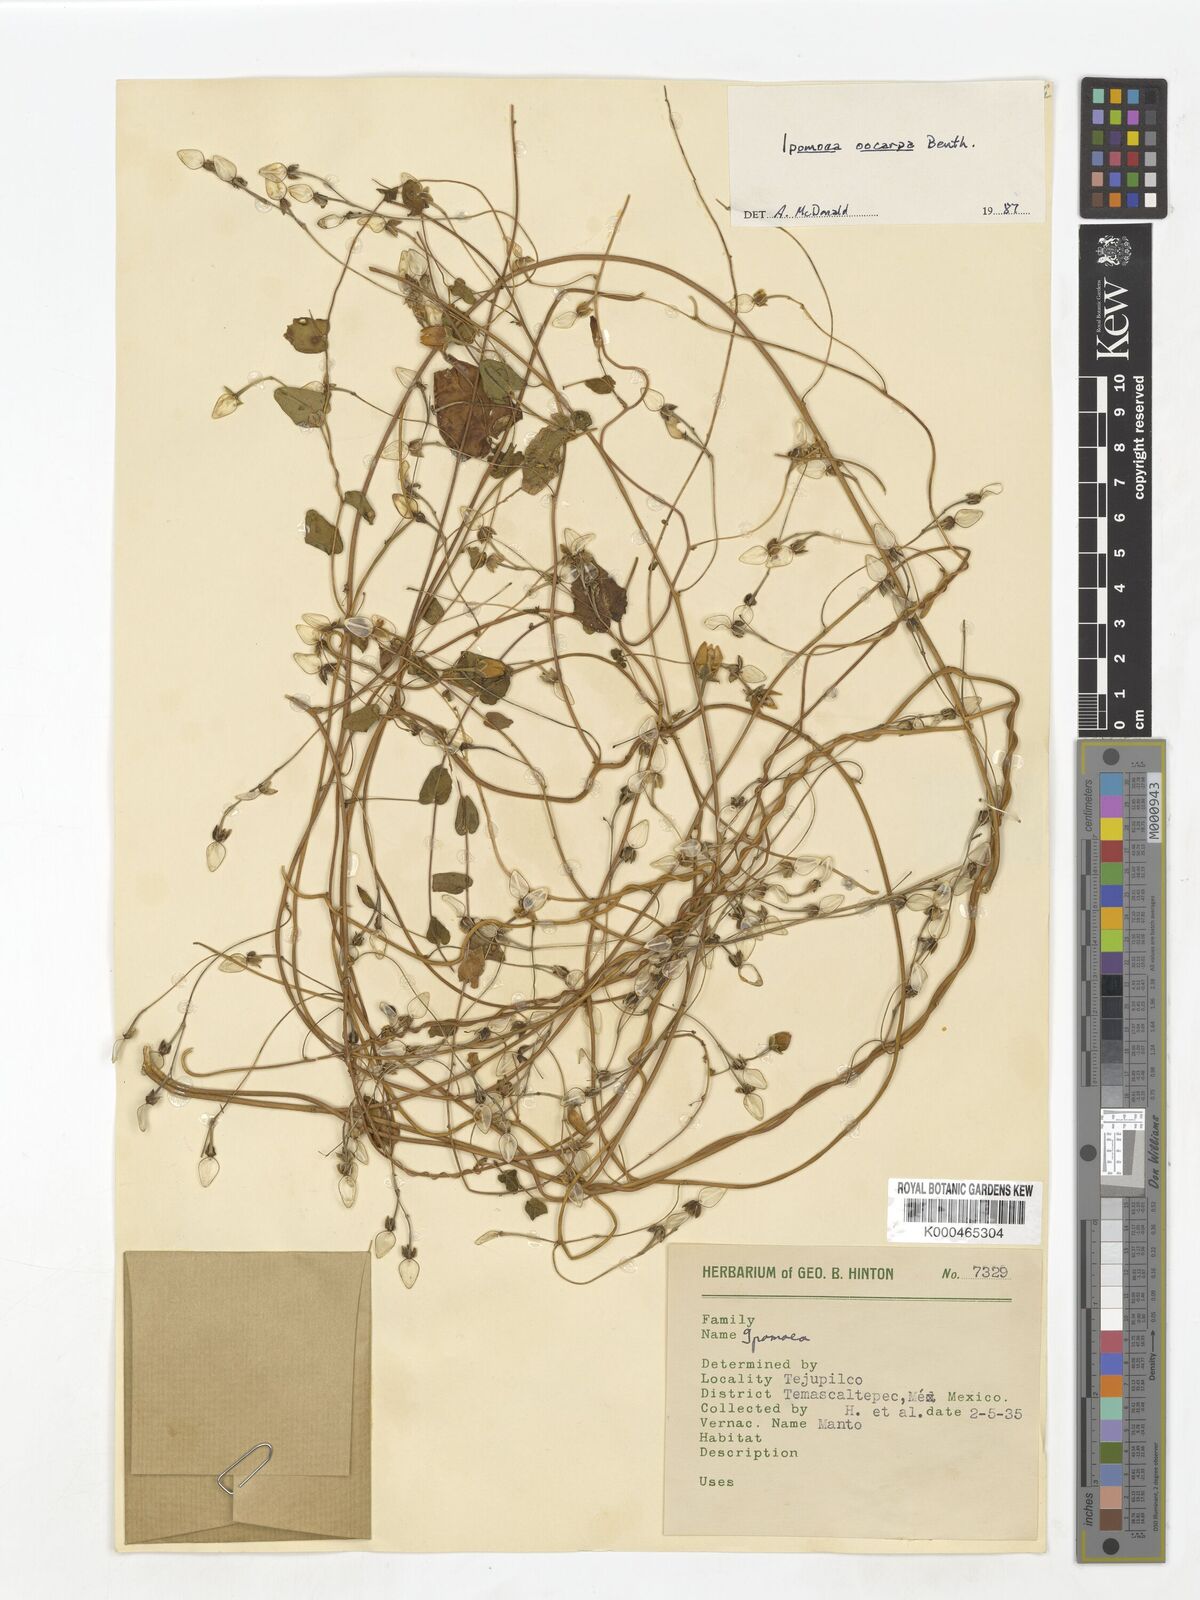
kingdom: Plantae
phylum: Tracheophyta
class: Magnoliopsida
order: Solanales
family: Convolvulaceae
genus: Ipomoea
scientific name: Ipomoea aristolochiifolia
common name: Aristolochia-leaved morning-glory
